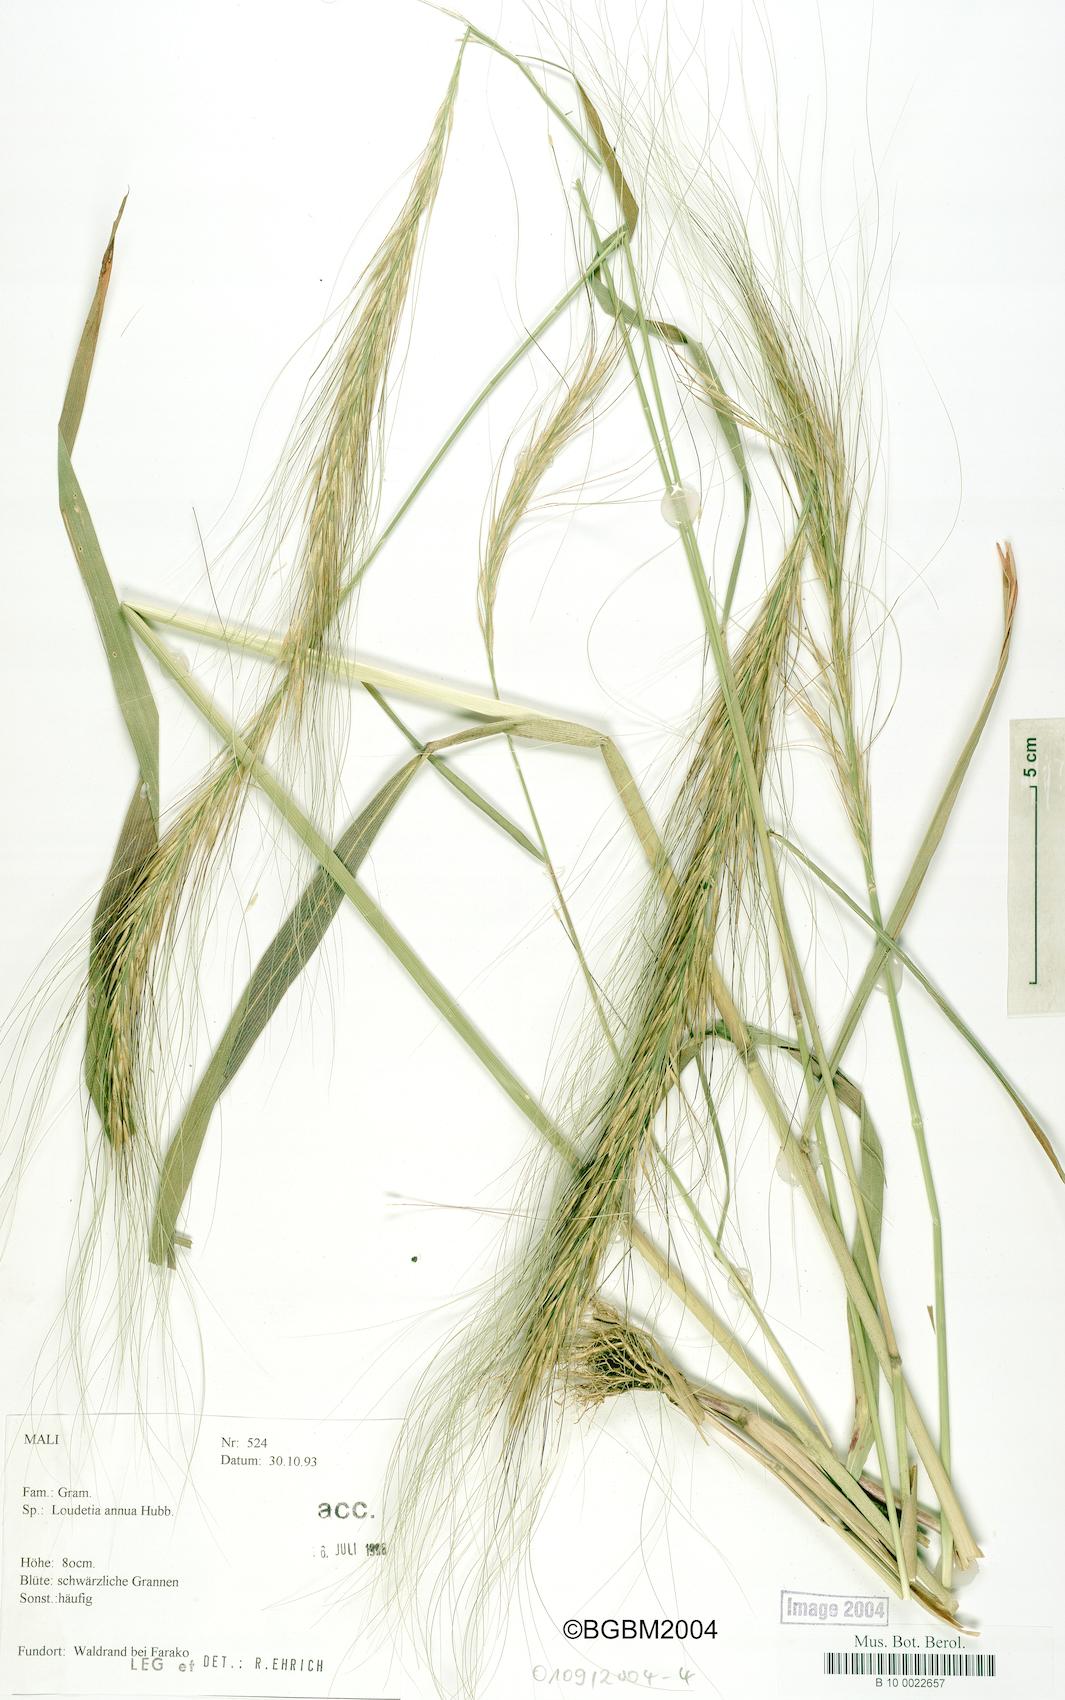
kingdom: Plantae
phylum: Tracheophyta
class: Liliopsida
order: Poales
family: Poaceae
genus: Loudetia
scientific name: Loudetia annua
